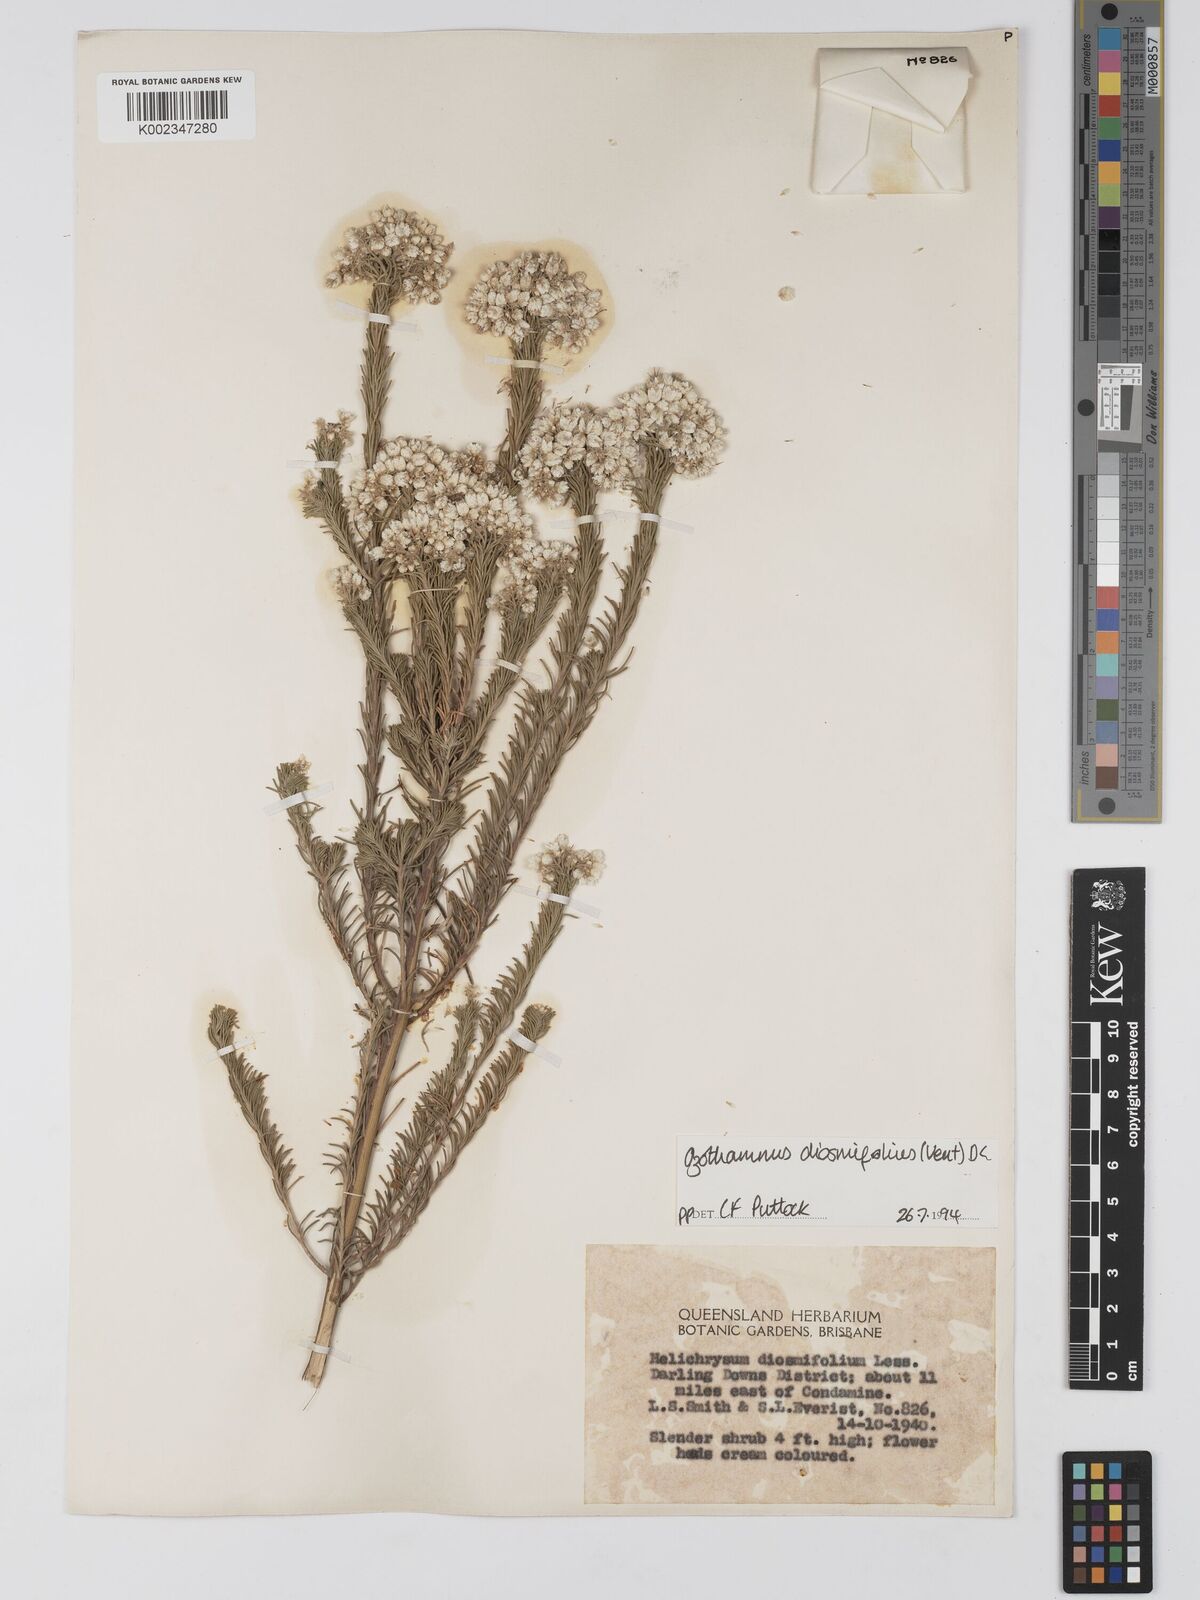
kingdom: Plantae
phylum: Tracheophyta
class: Magnoliopsida
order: Asterales
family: Asteraceae
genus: Ozothamnus
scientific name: Ozothamnus diosmifolius
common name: White-dogwood
